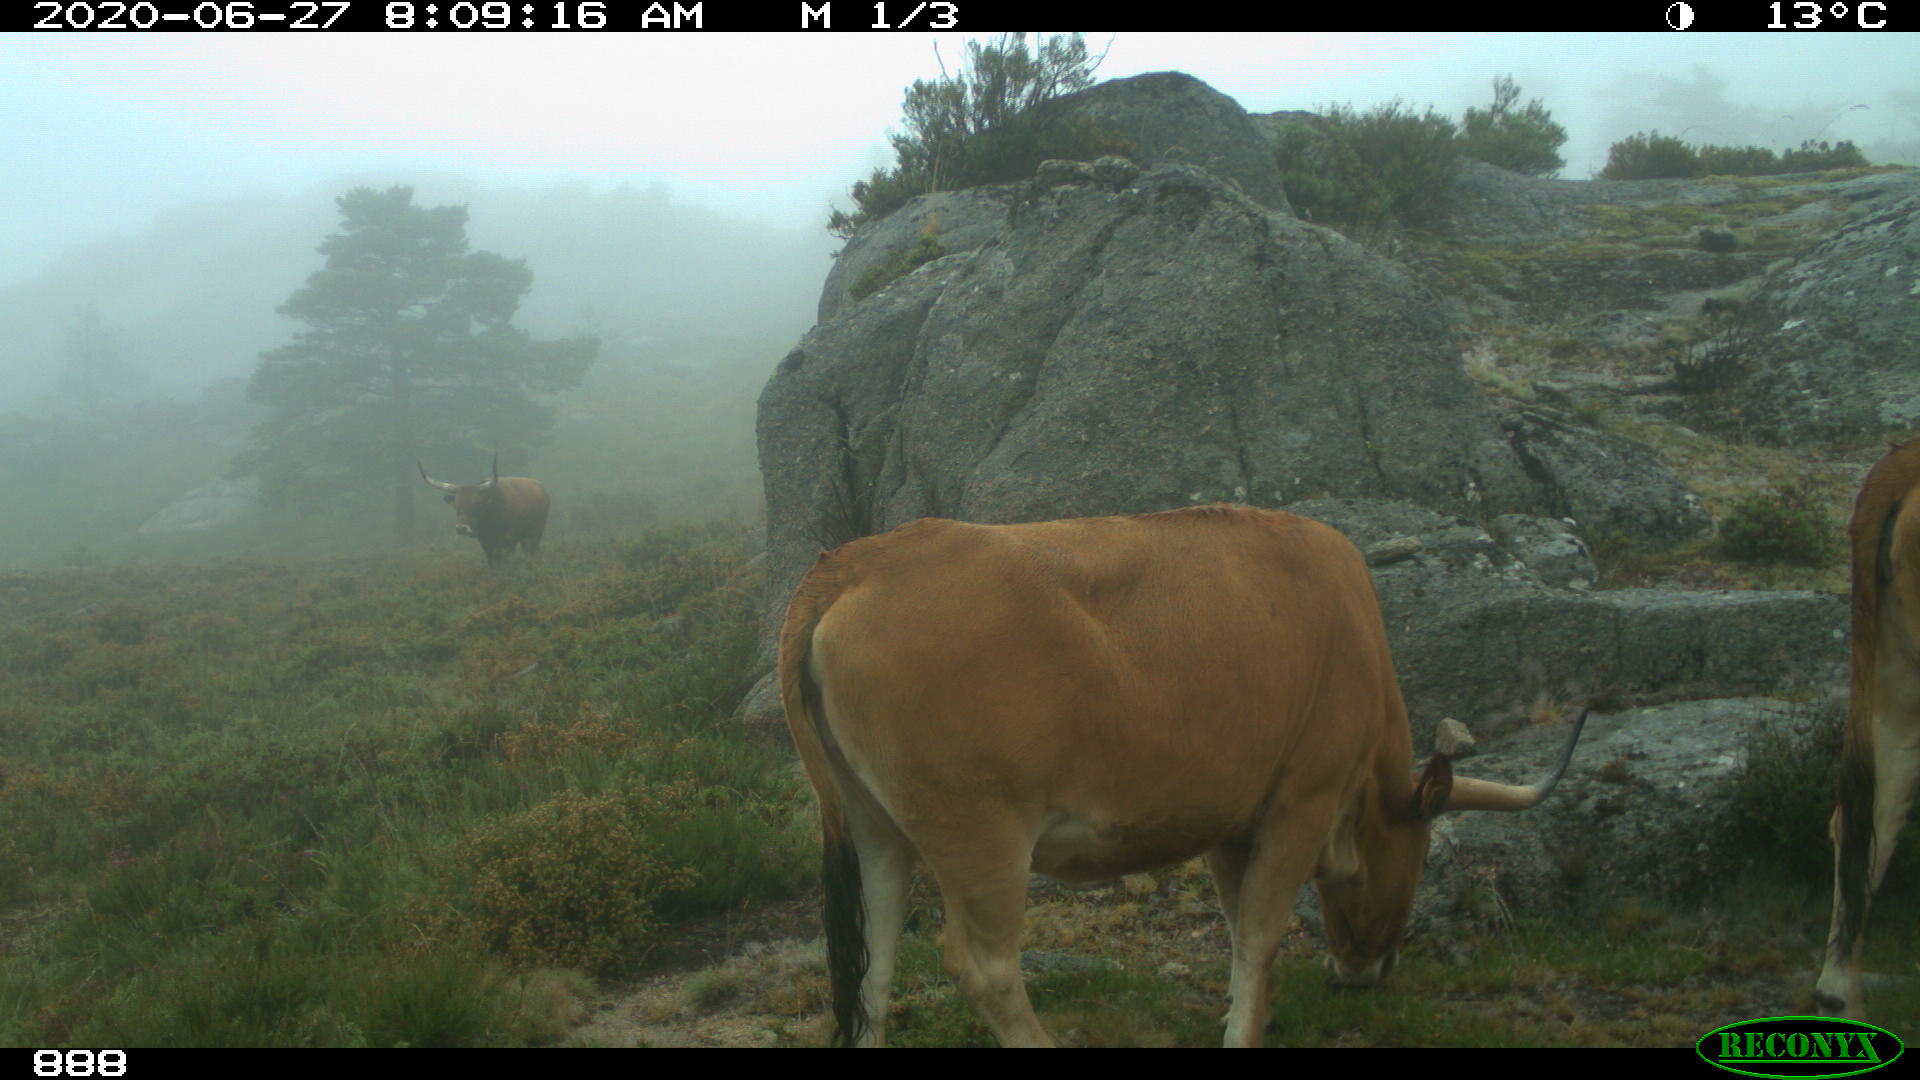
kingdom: Animalia
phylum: Chordata
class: Mammalia
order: Artiodactyla
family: Bovidae
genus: Bos
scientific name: Bos taurus
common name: Domesticated cattle
